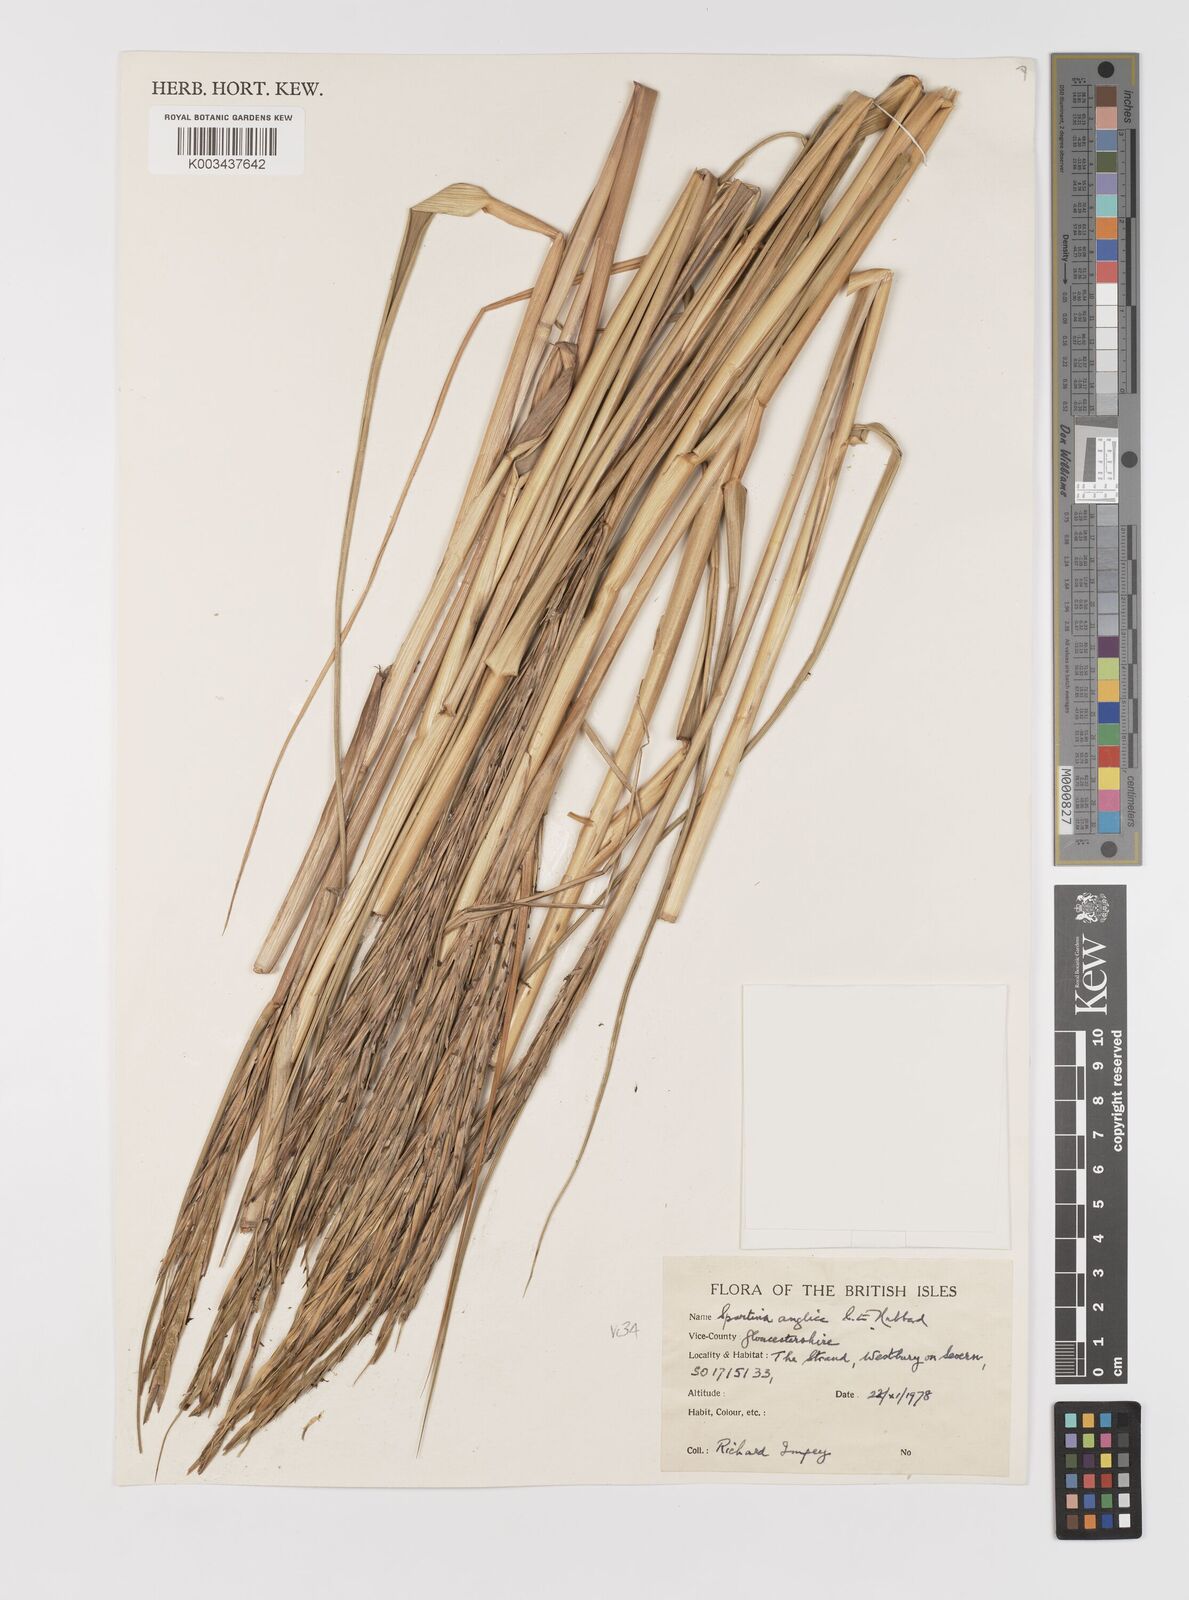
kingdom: Plantae
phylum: Tracheophyta
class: Liliopsida
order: Poales
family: Poaceae
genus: Sporobolus
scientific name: Sporobolus anglicus
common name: English cordgrass
